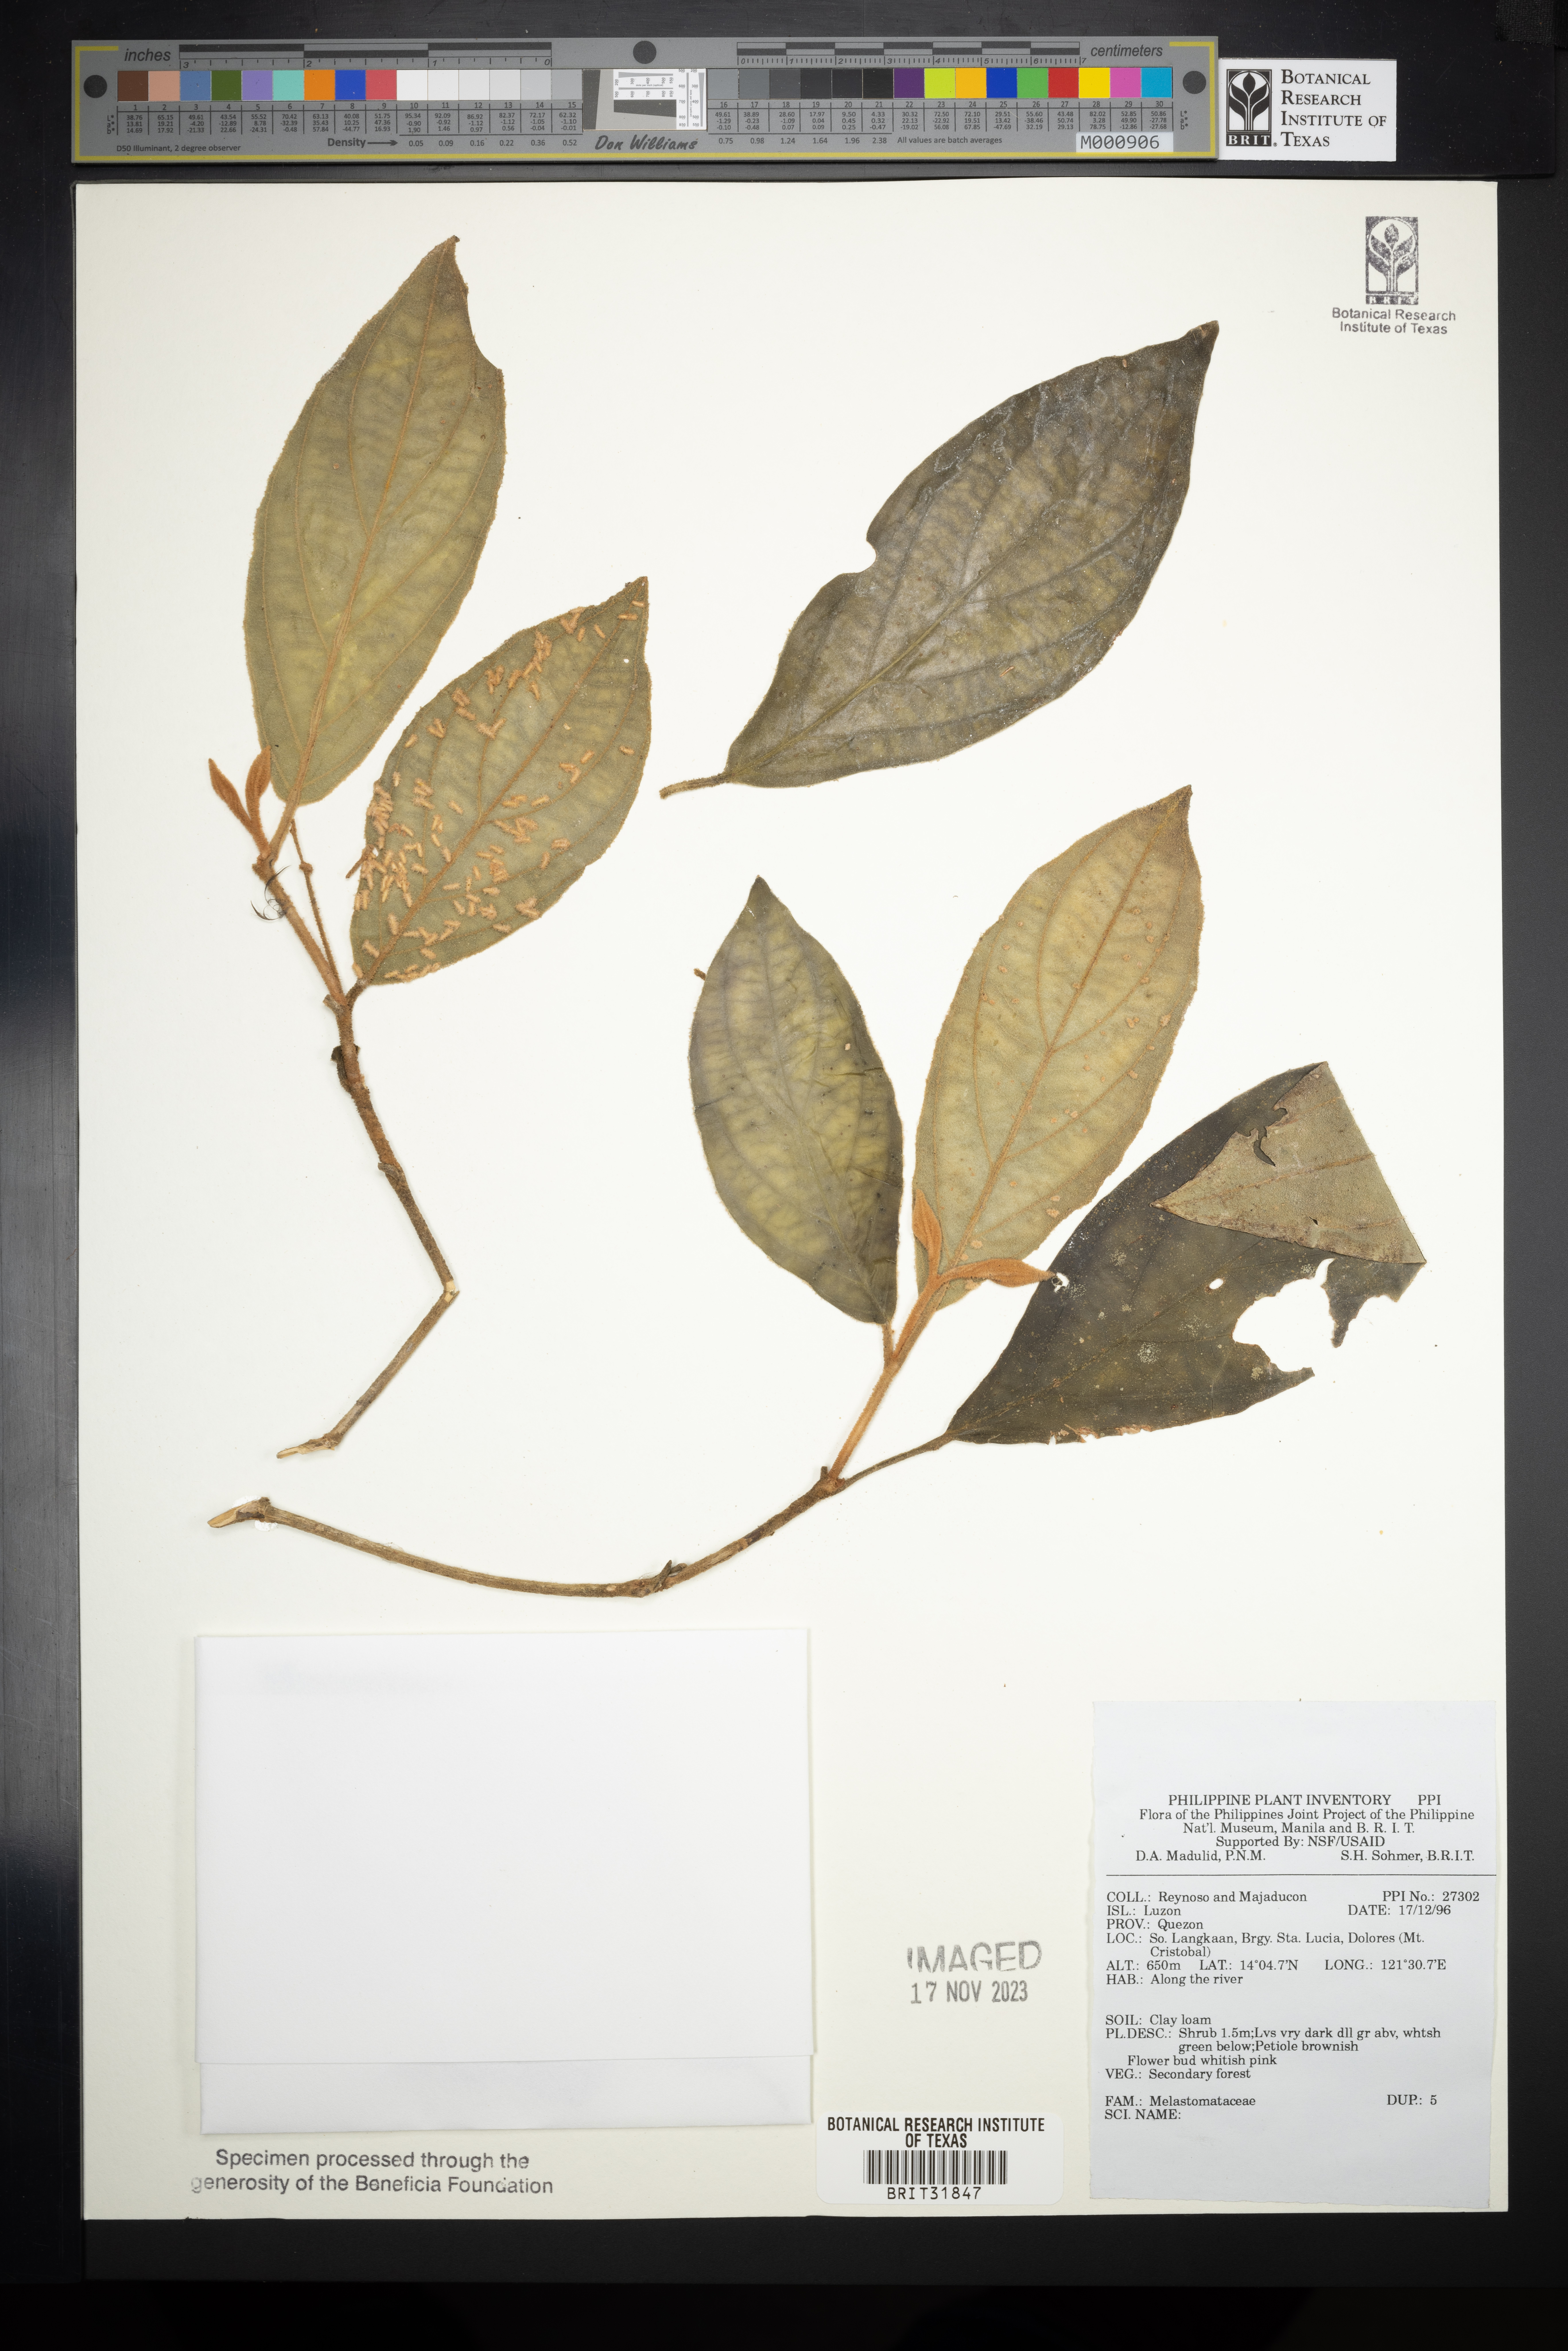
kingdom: Plantae
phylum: Tracheophyta
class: Magnoliopsida
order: Myrtales
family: Melastomataceae
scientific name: Melastomataceae
